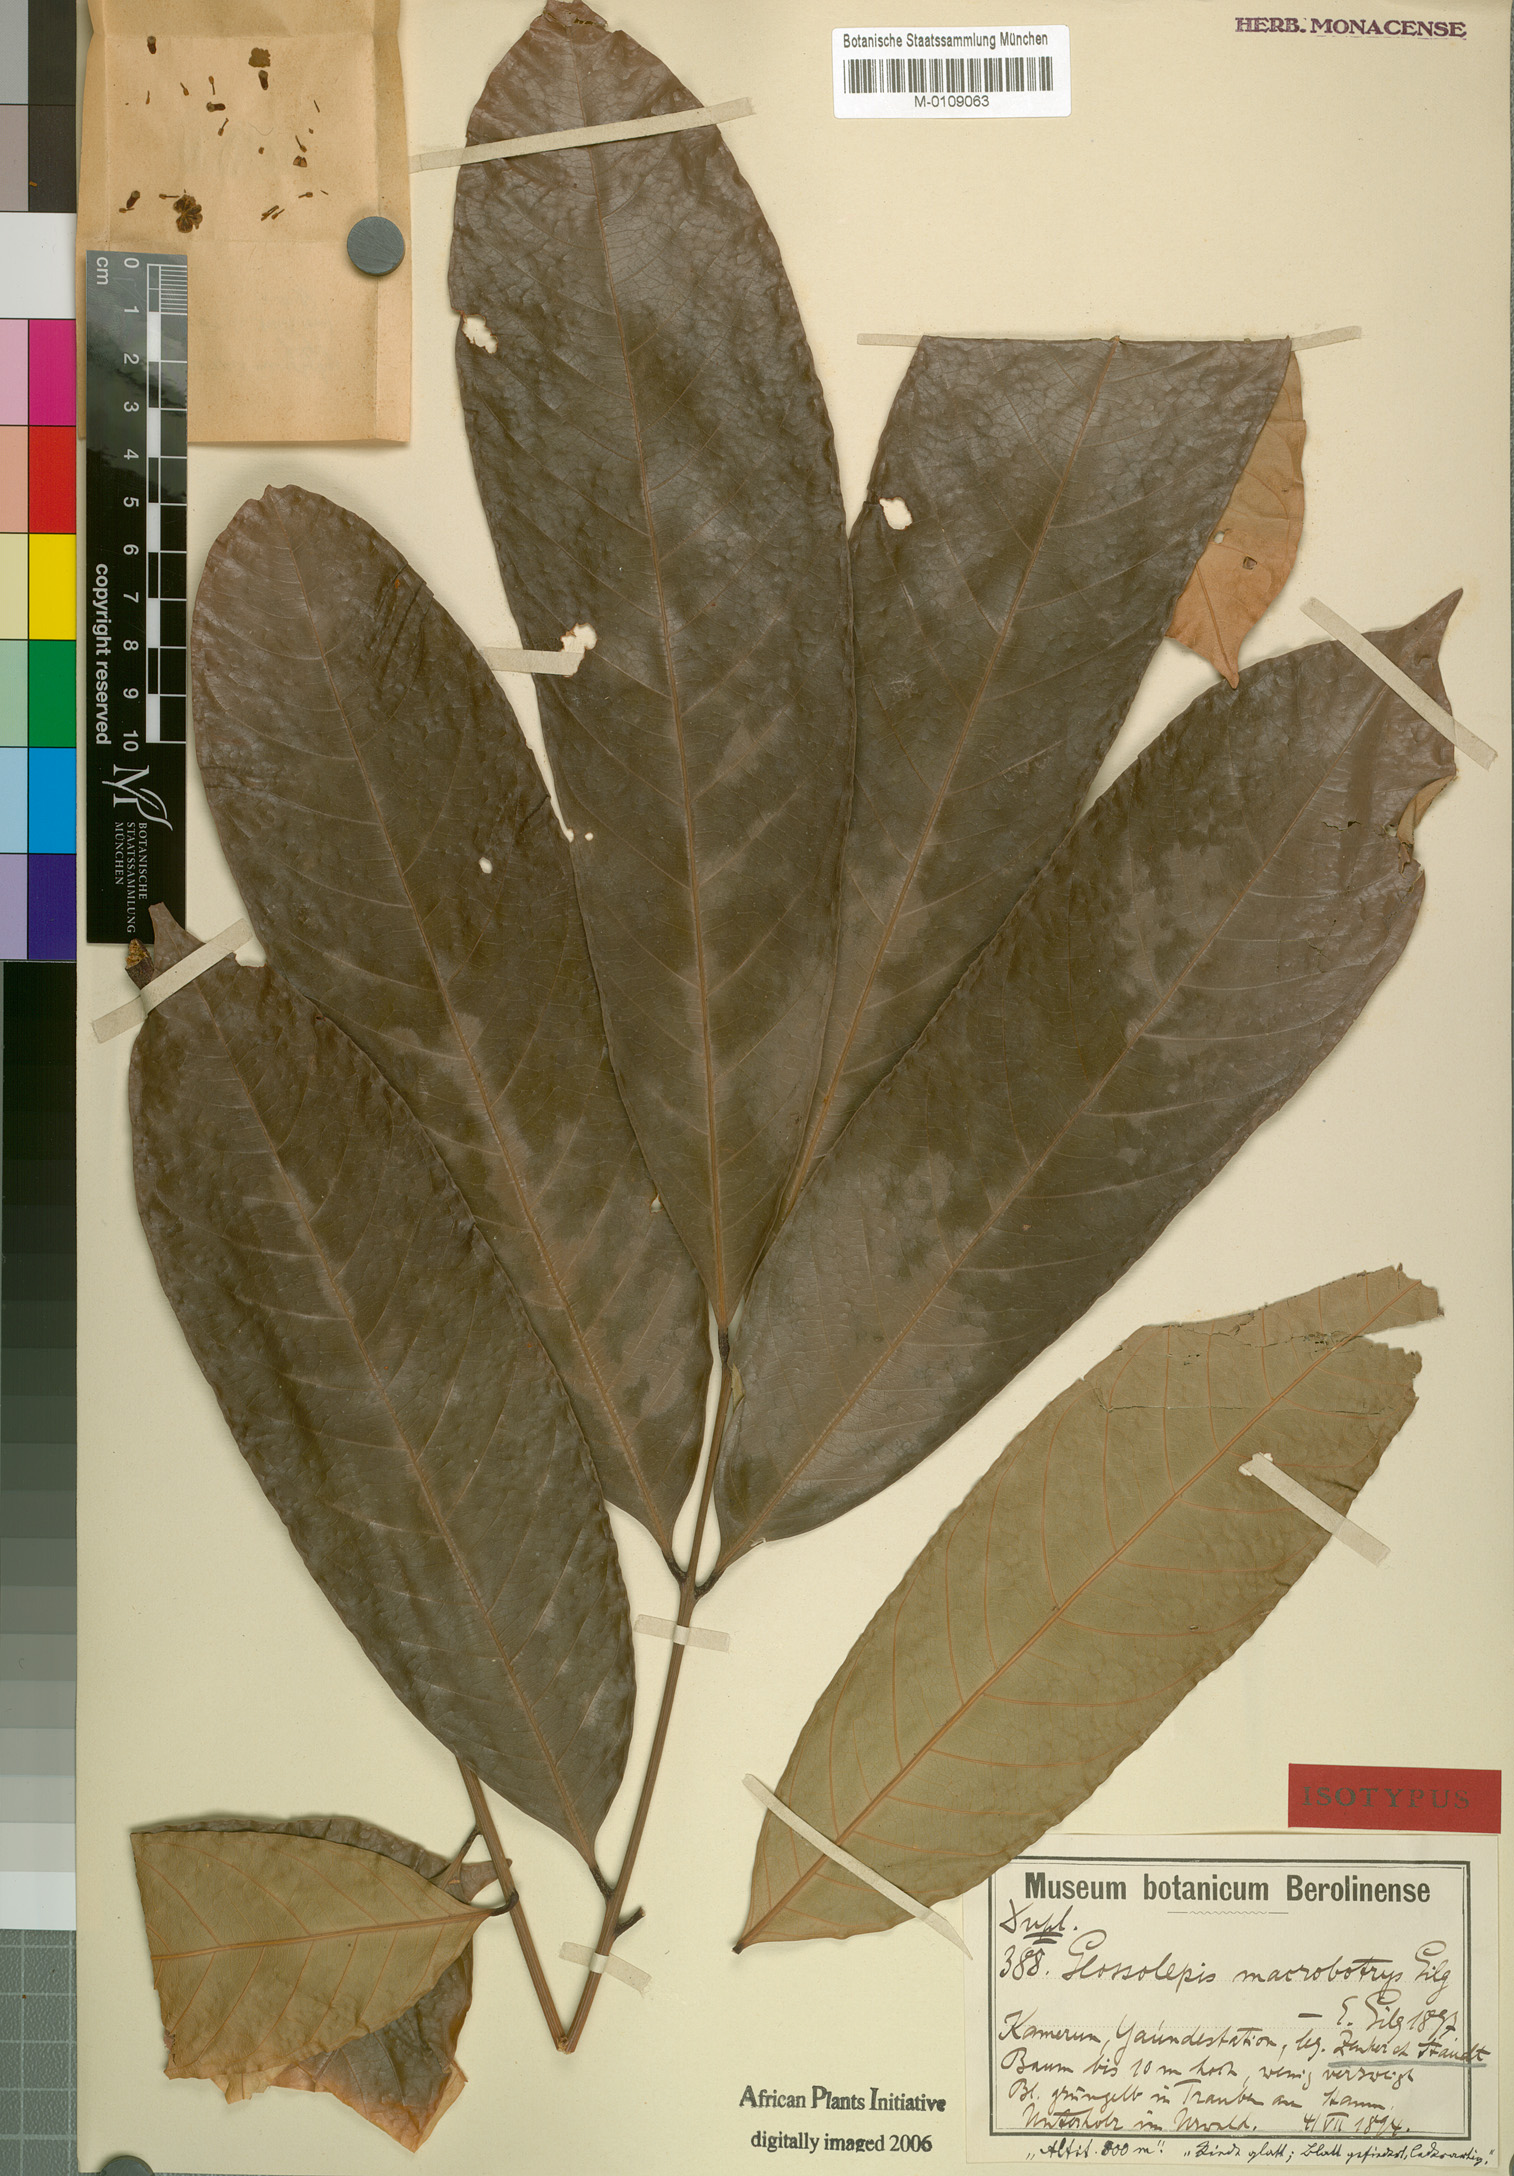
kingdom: Plantae
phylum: Tracheophyta
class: Magnoliopsida
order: Sapindales
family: Sapindaceae
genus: Chytranthus
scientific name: Chytranthus macrobotrys
